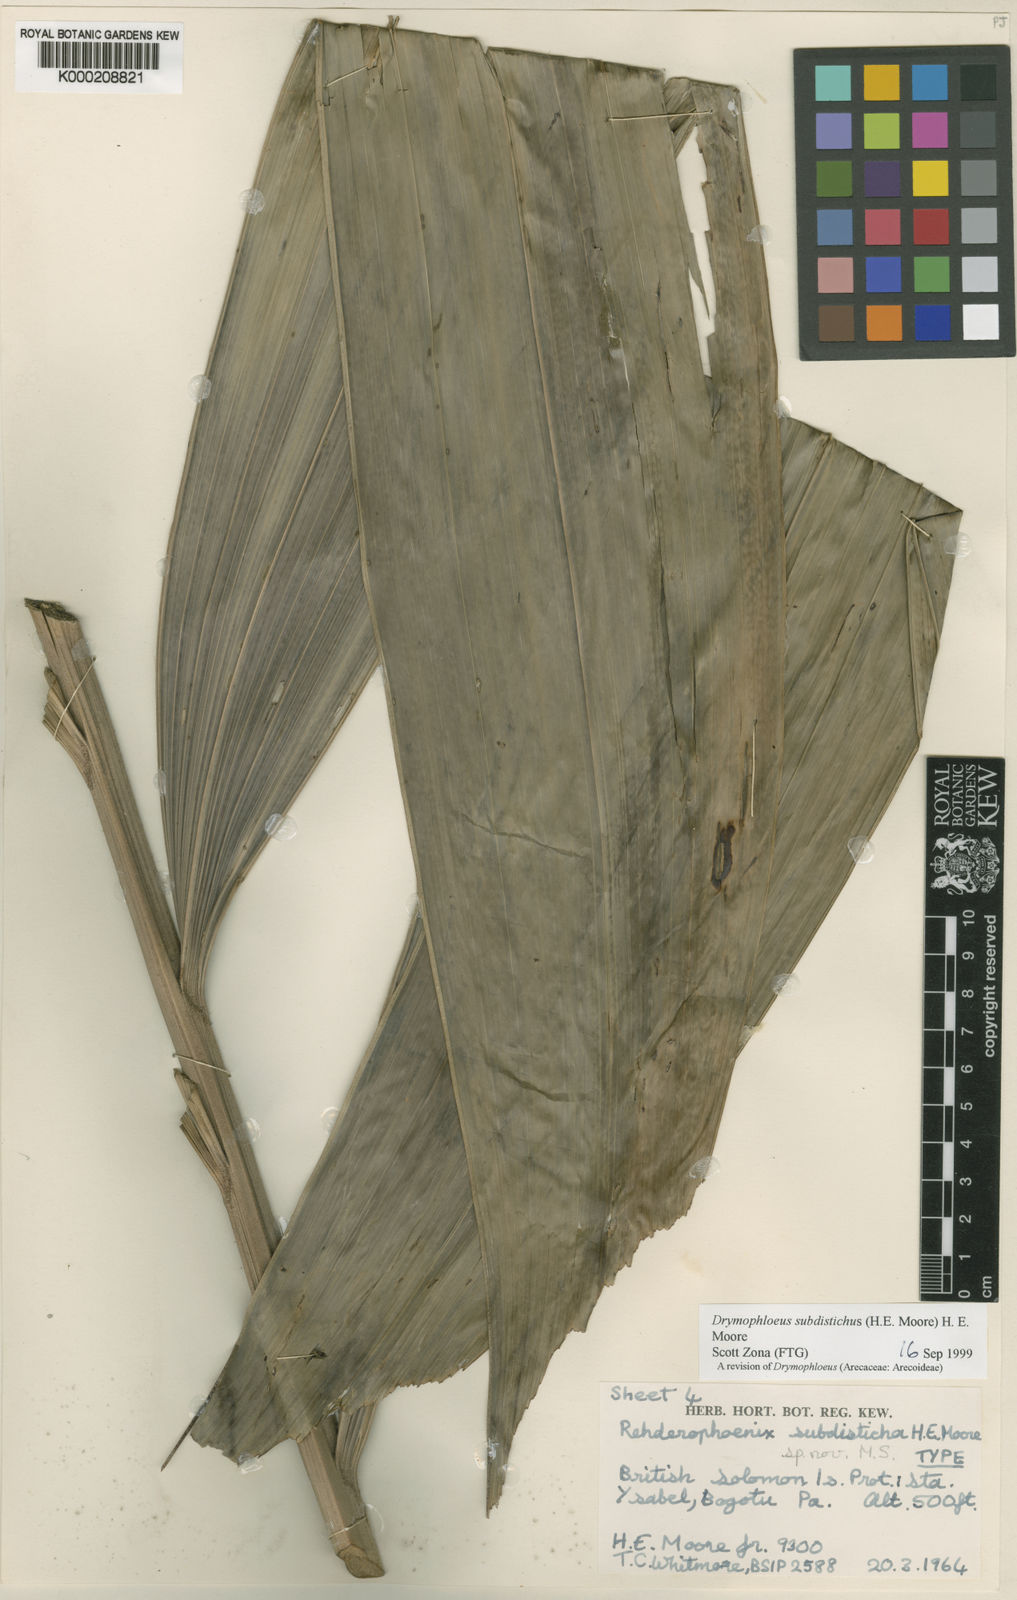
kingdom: Plantae
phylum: Tracheophyta
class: Liliopsida
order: Arecales
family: Arecaceae
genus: Veitchia
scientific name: Veitchia subdisticha
